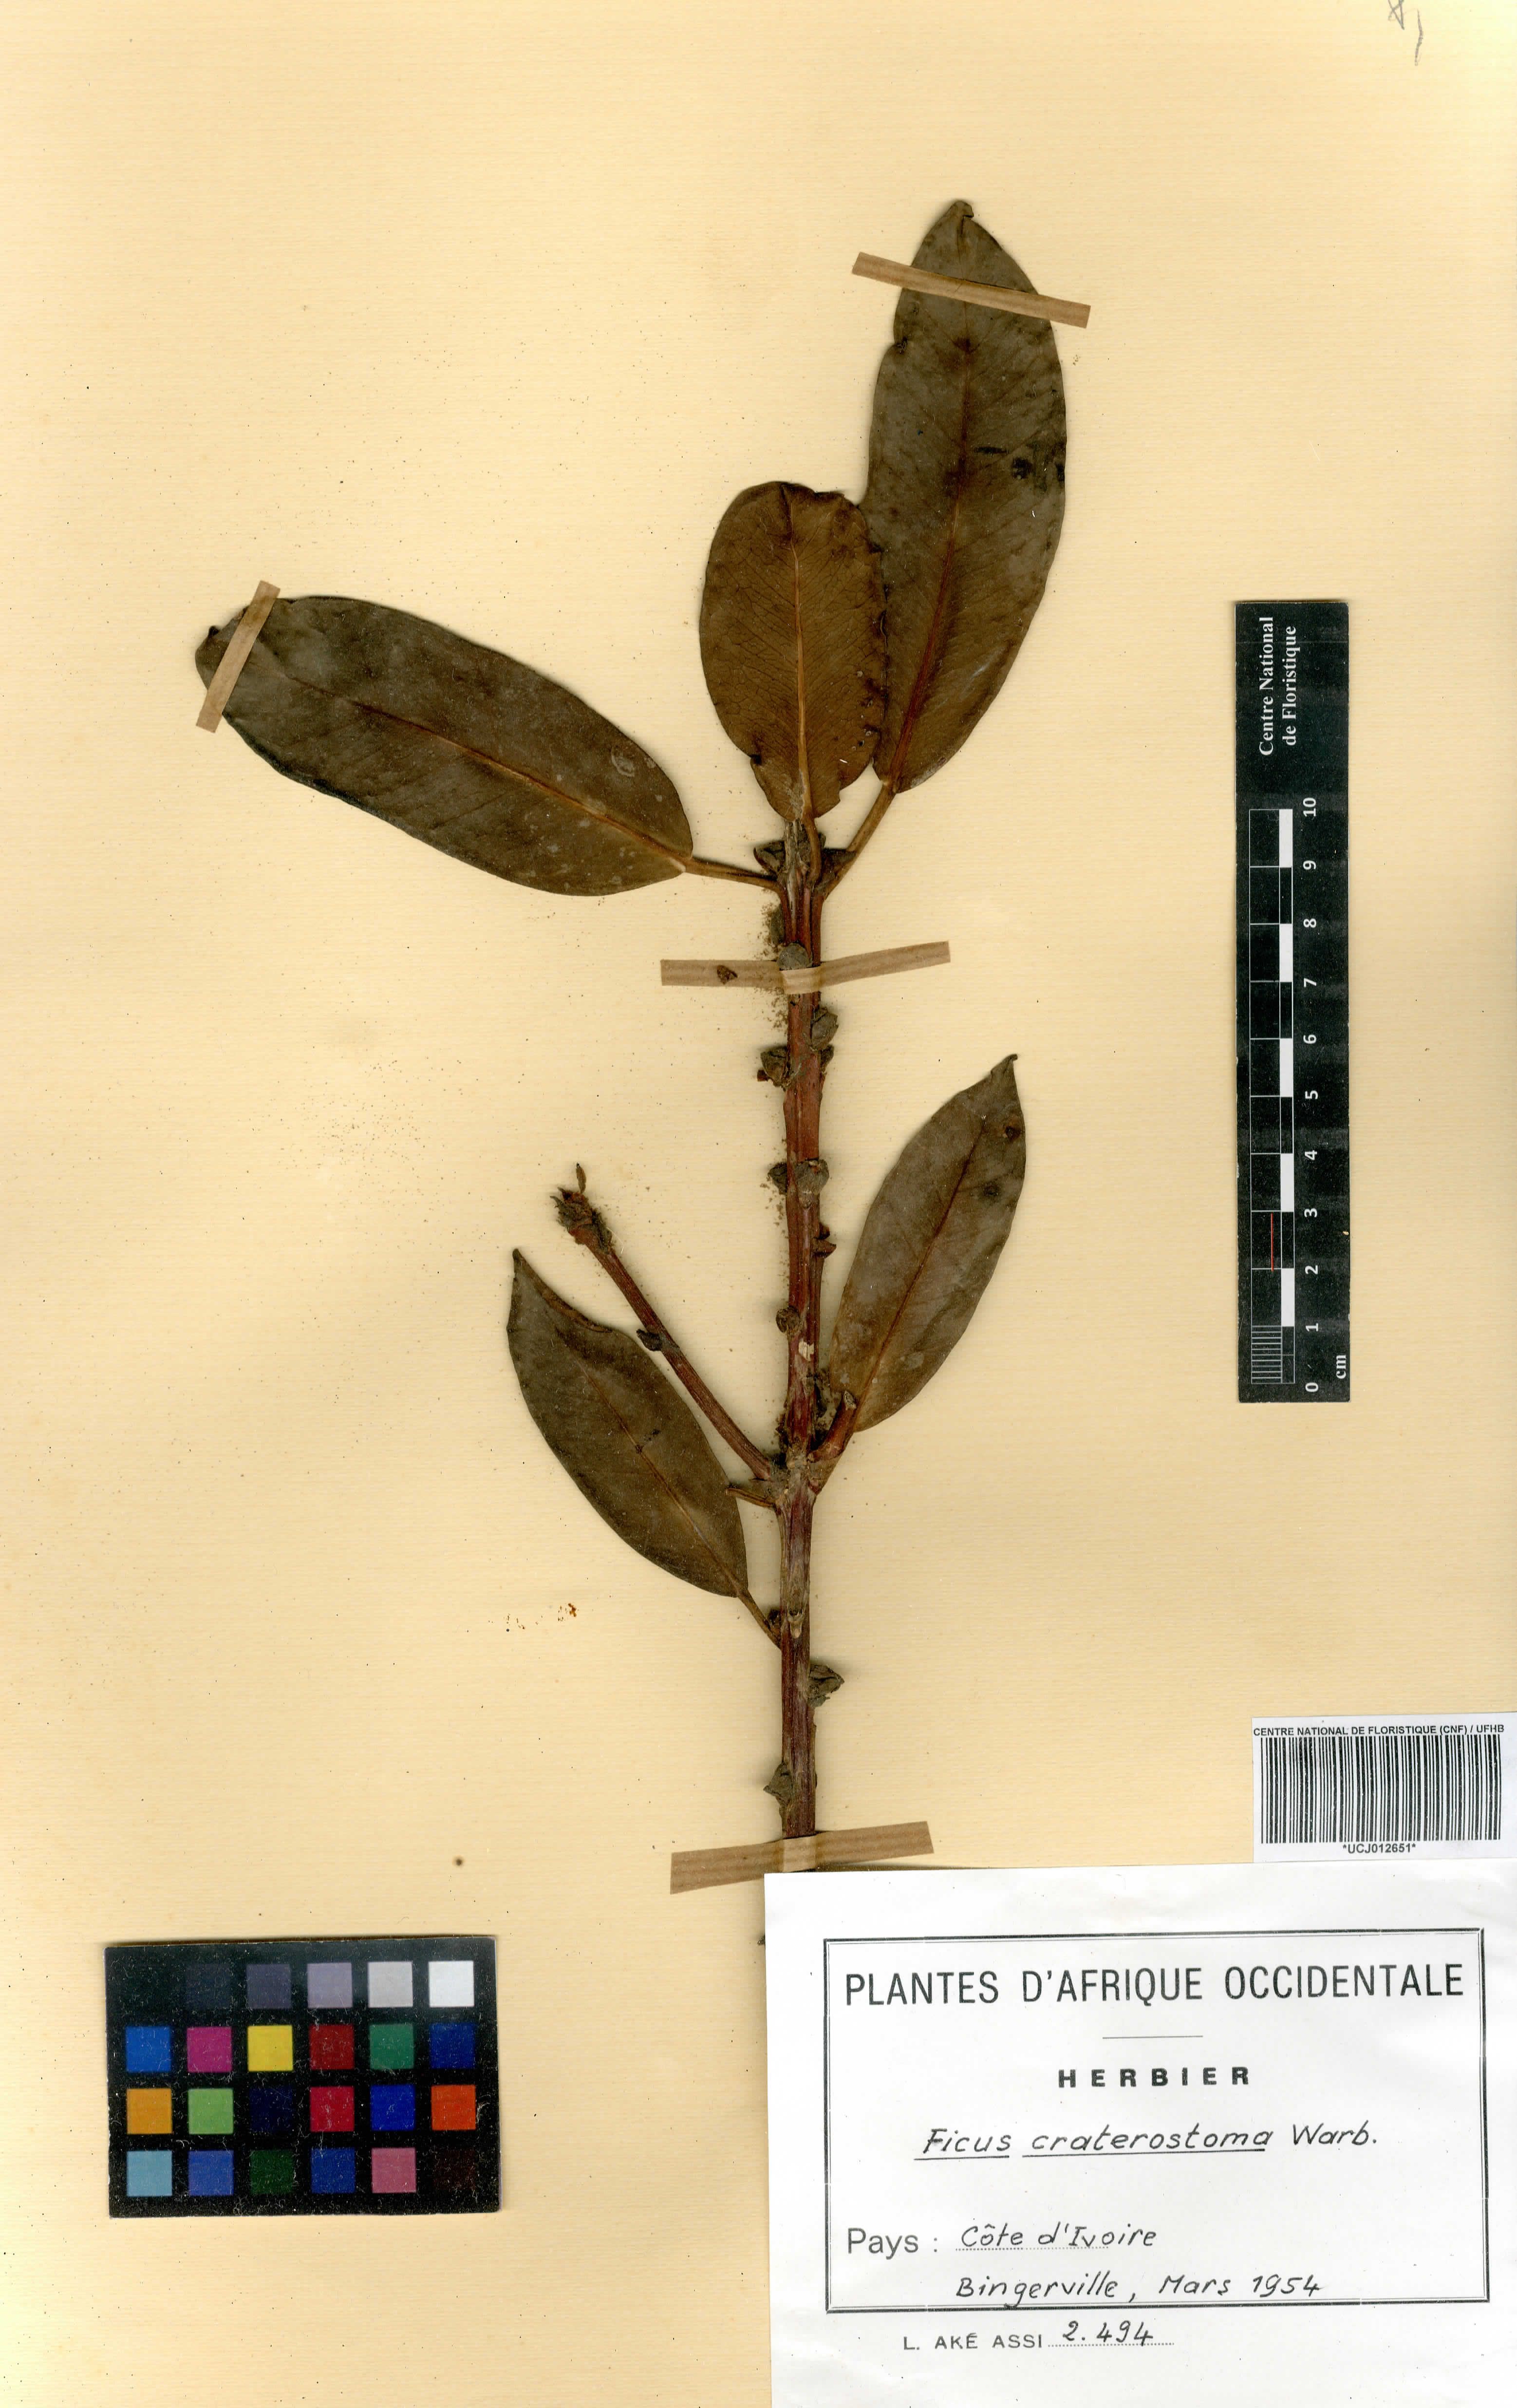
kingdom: Plantae
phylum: Tracheophyta
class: Magnoliopsida
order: Rosales
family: Moraceae
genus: Ficus
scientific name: Ficus craterostoma
